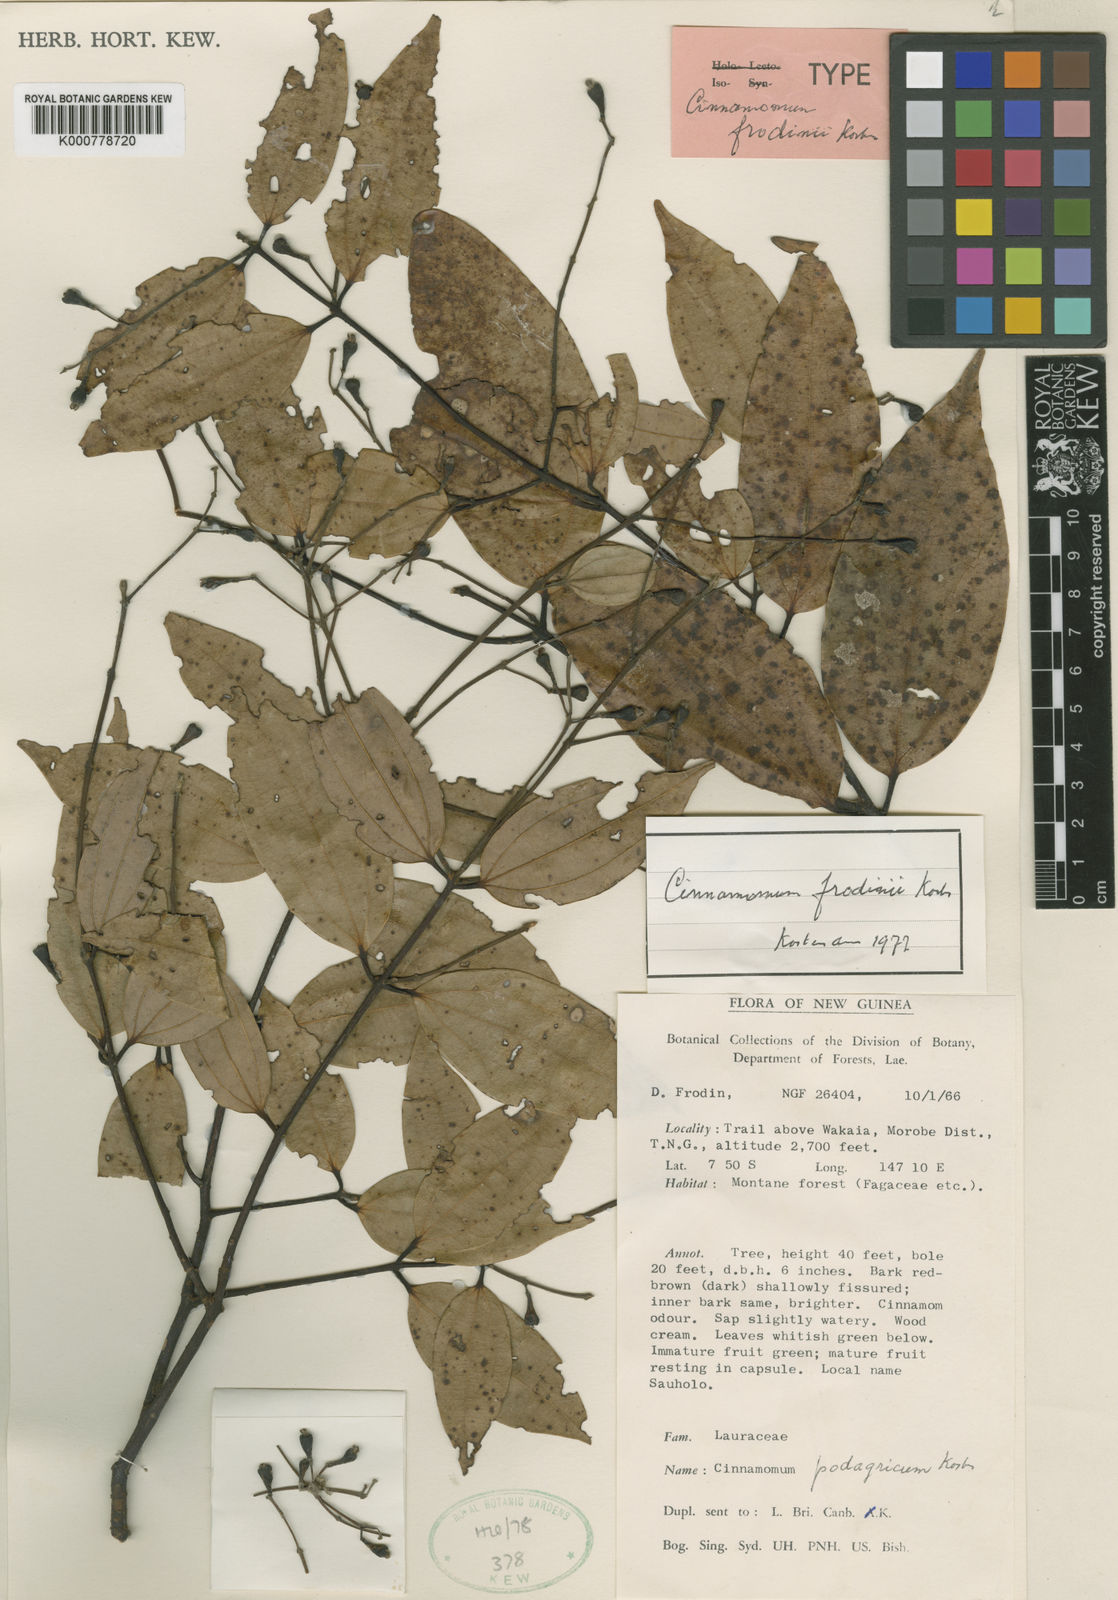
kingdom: Plantae
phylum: Tracheophyta
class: Magnoliopsida
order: Laurales
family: Lauraceae
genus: Cinnamomum
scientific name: Cinnamomum frodinii
